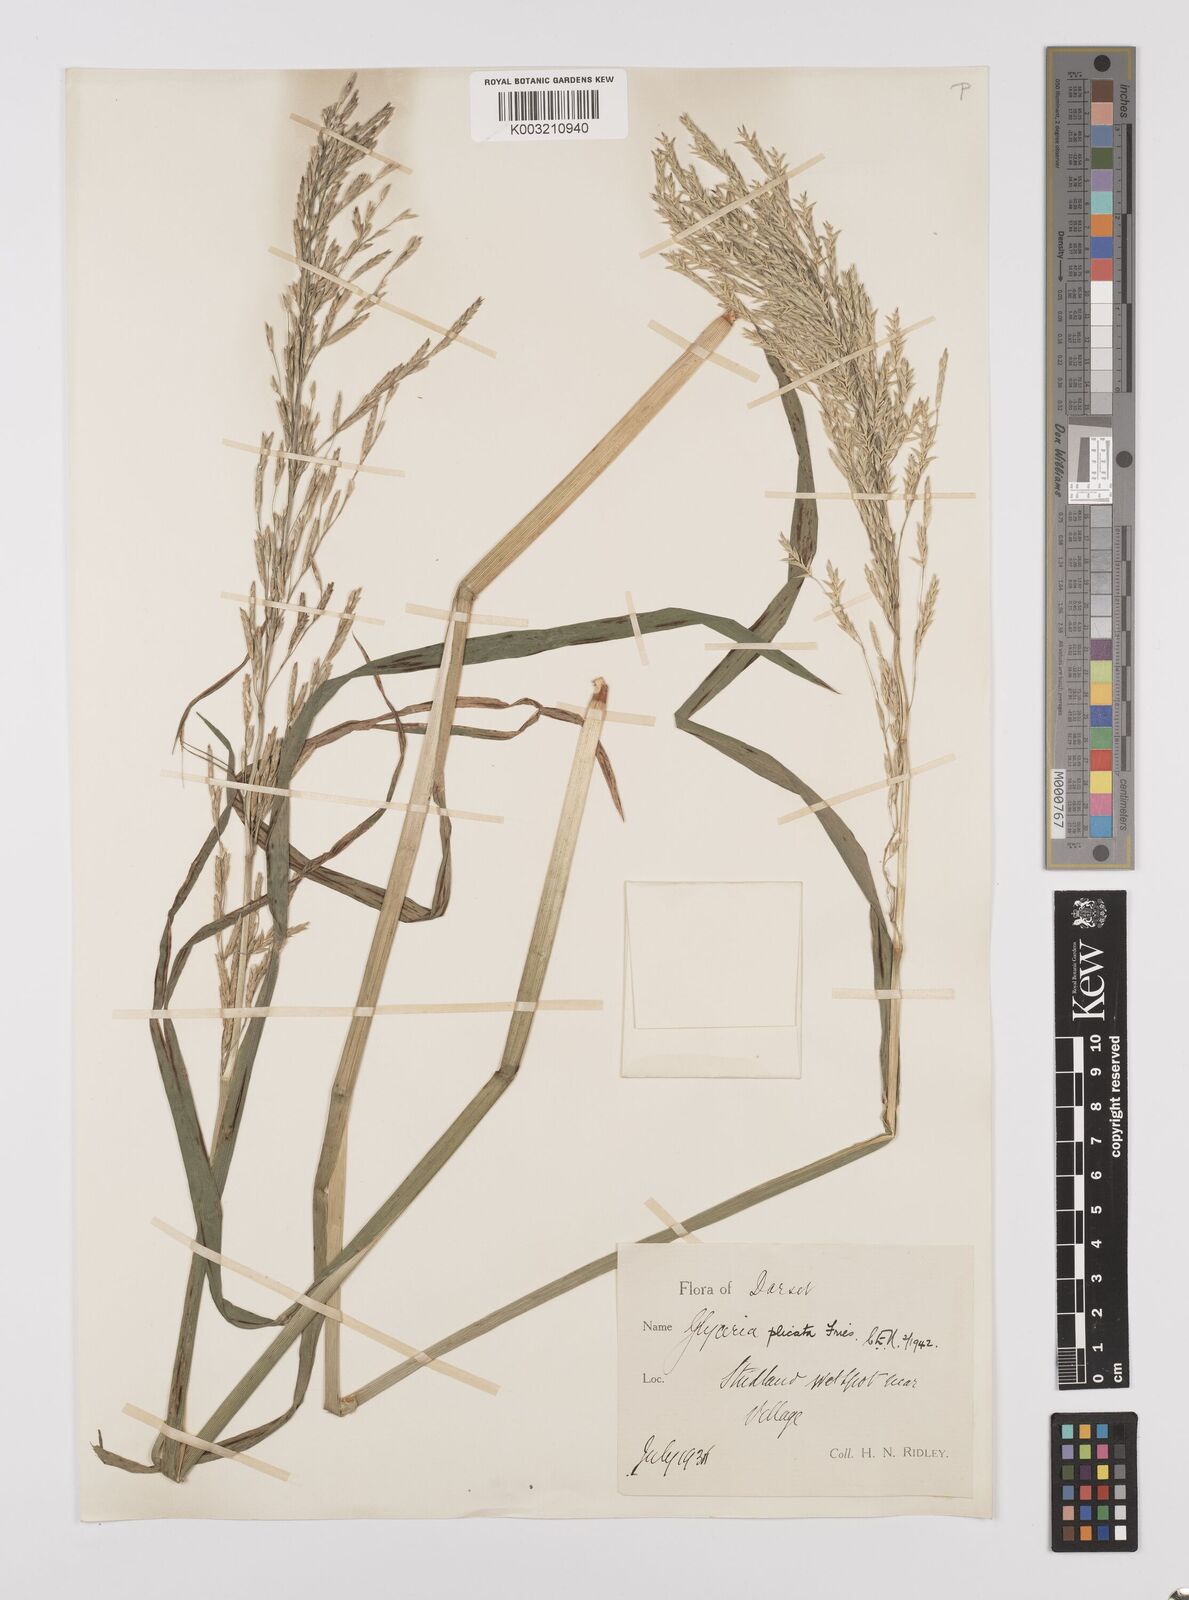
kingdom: Plantae
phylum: Tracheophyta
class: Liliopsida
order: Poales
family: Poaceae
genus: Glyceria
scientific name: Glyceria notata
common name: Plicate sweet-grass
